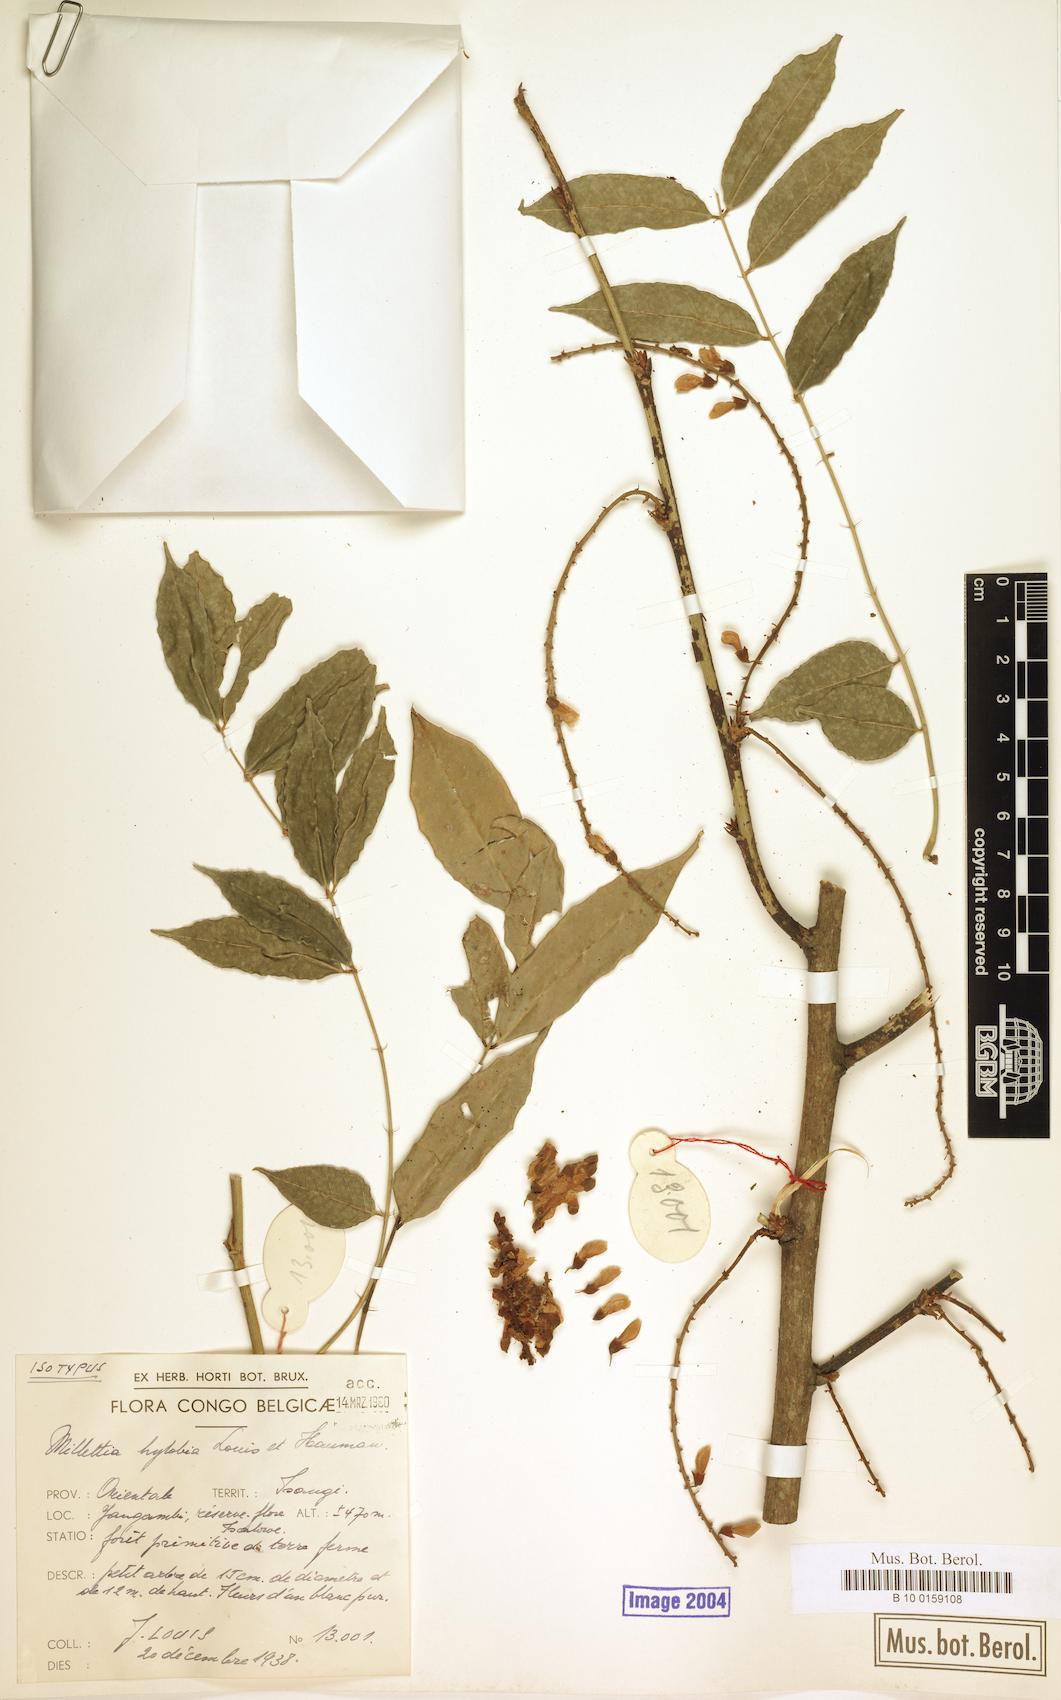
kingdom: Plantae
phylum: Tracheophyta
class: Magnoliopsida
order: Fabales
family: Fabaceae
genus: Millettia
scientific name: Millettia hylobia
